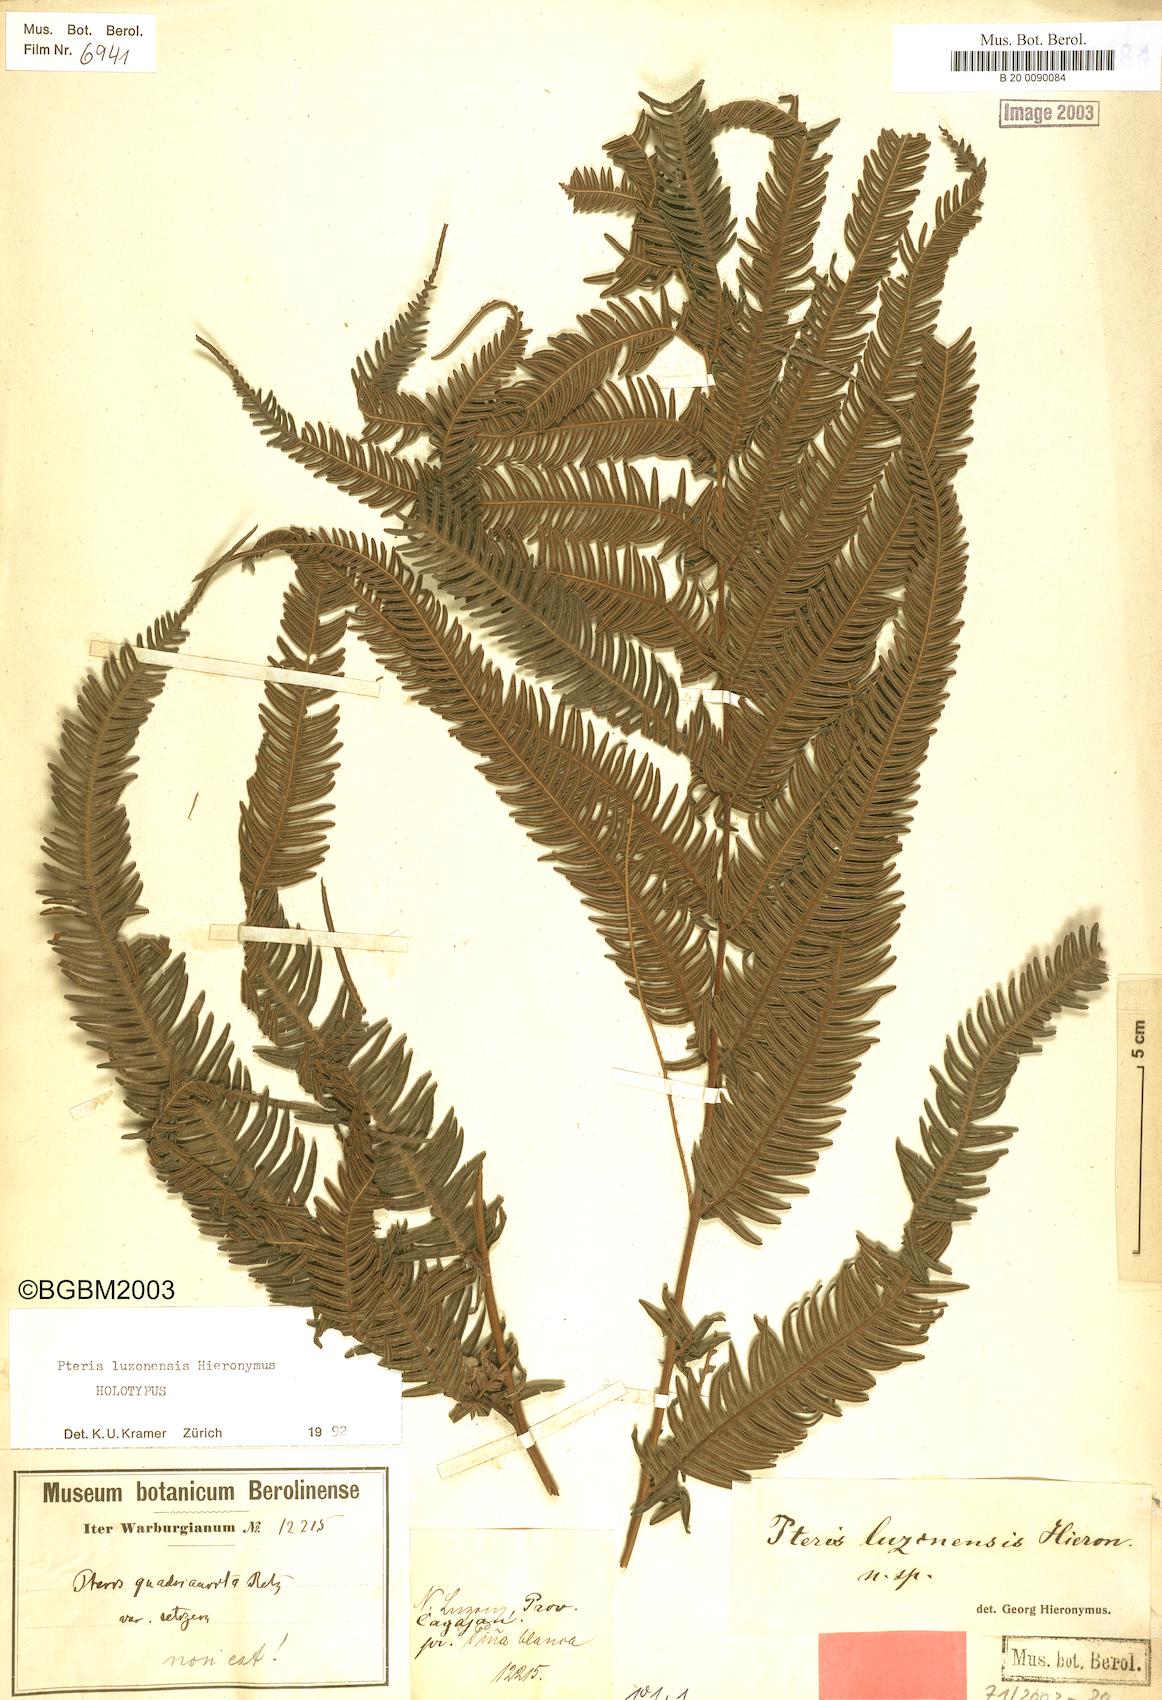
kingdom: Plantae
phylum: Tracheophyta
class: Polypodiopsida
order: Polypodiales
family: Pteridaceae
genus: Pteris
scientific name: Pteris luzonensis
